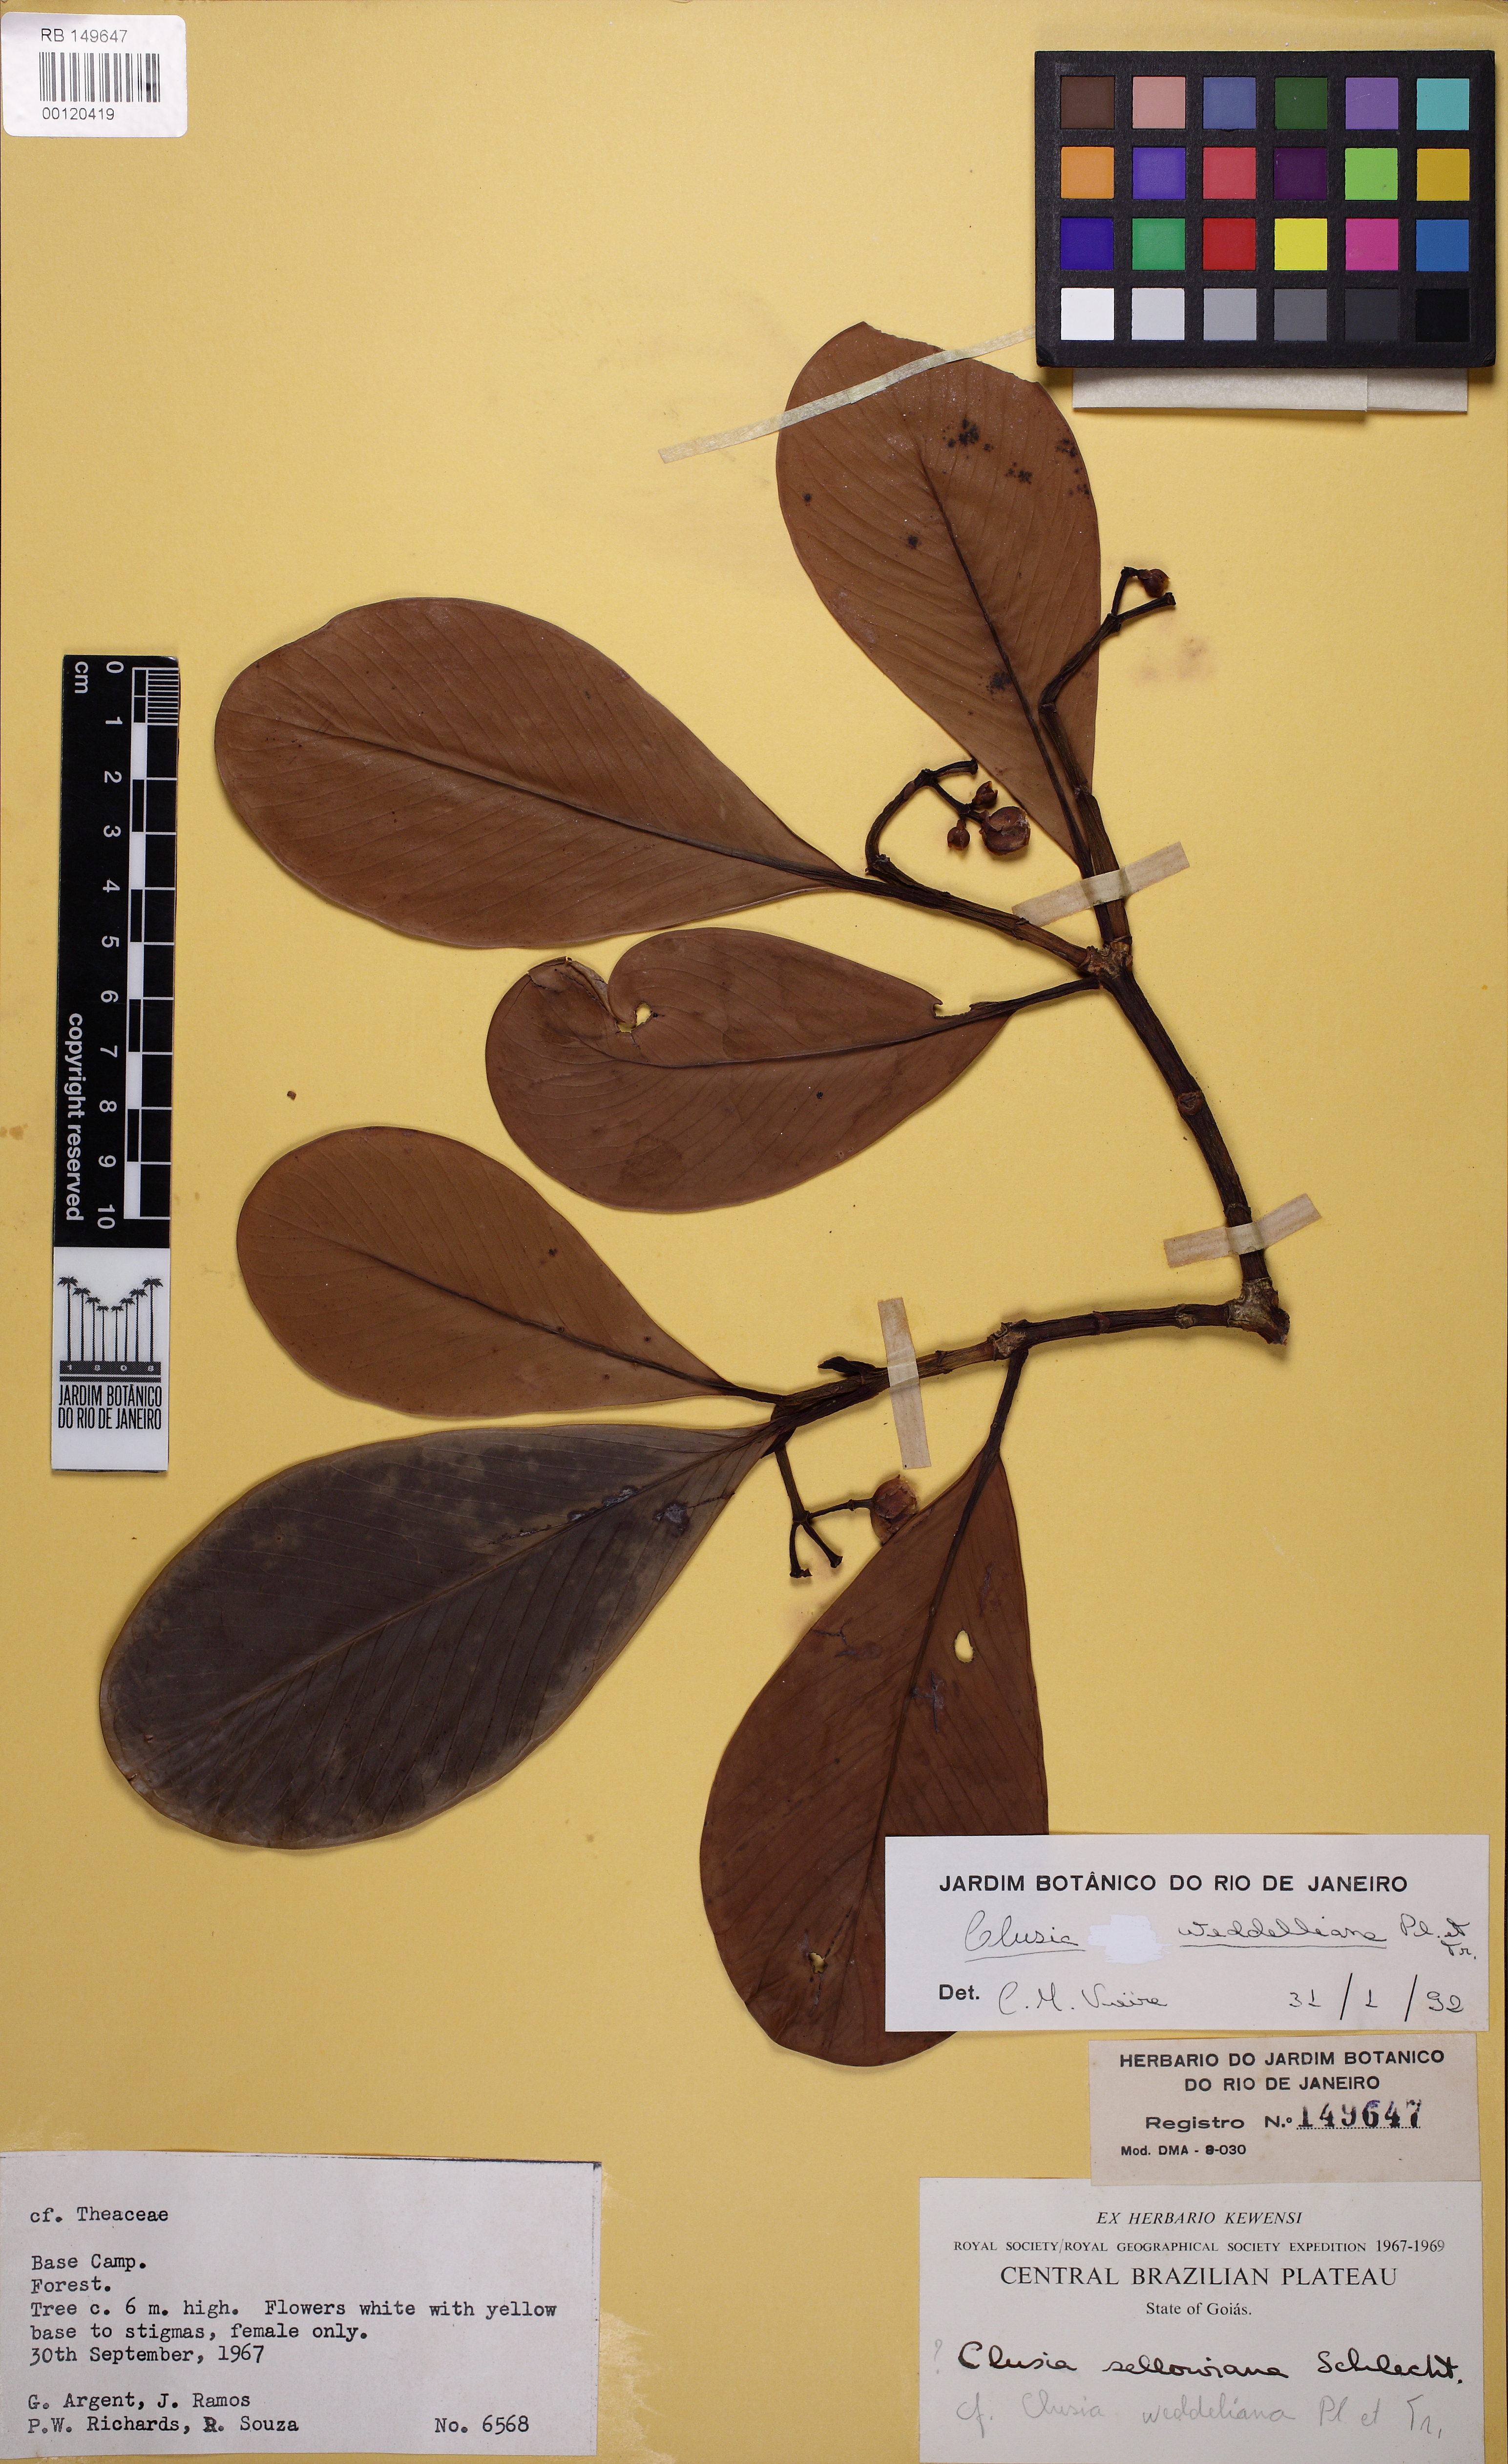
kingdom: Plantae
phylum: Tracheophyta
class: Magnoliopsida
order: Malpighiales
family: Clusiaceae
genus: Clusia
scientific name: Clusia weddelliana
